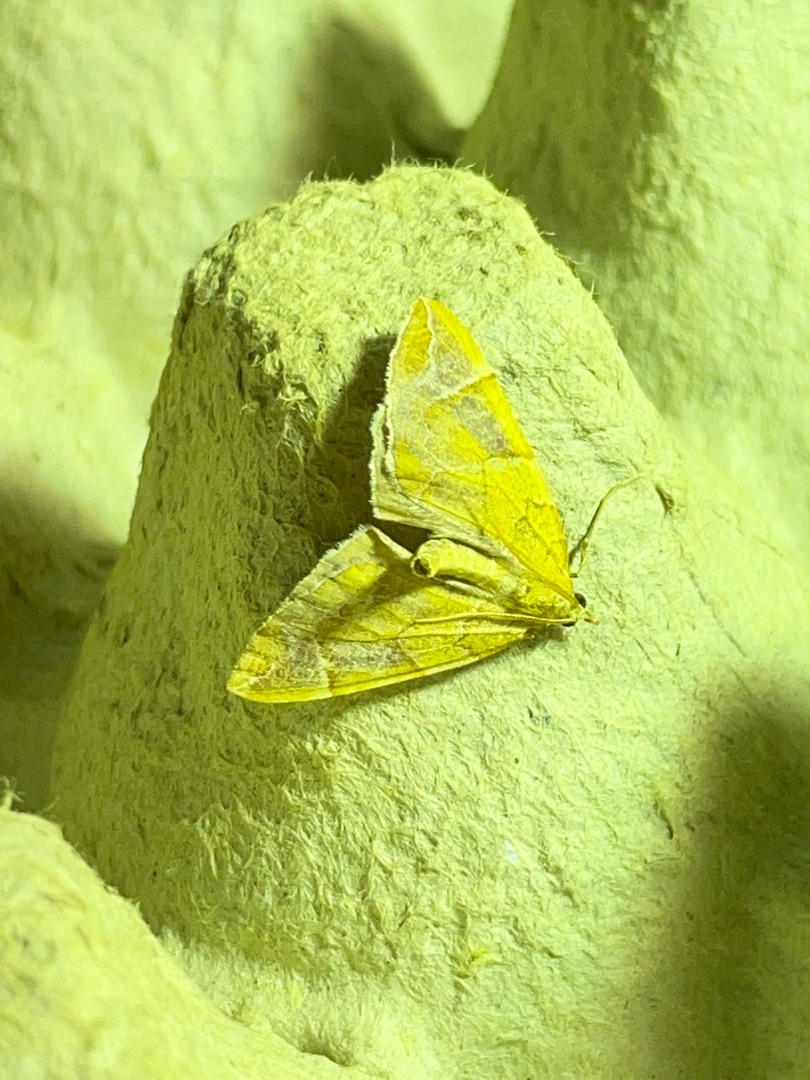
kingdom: Animalia
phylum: Arthropoda
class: Insecta
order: Lepidoptera
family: Geometridae
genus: Eulithis
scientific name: Eulithis testata
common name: Pile-havemåler
